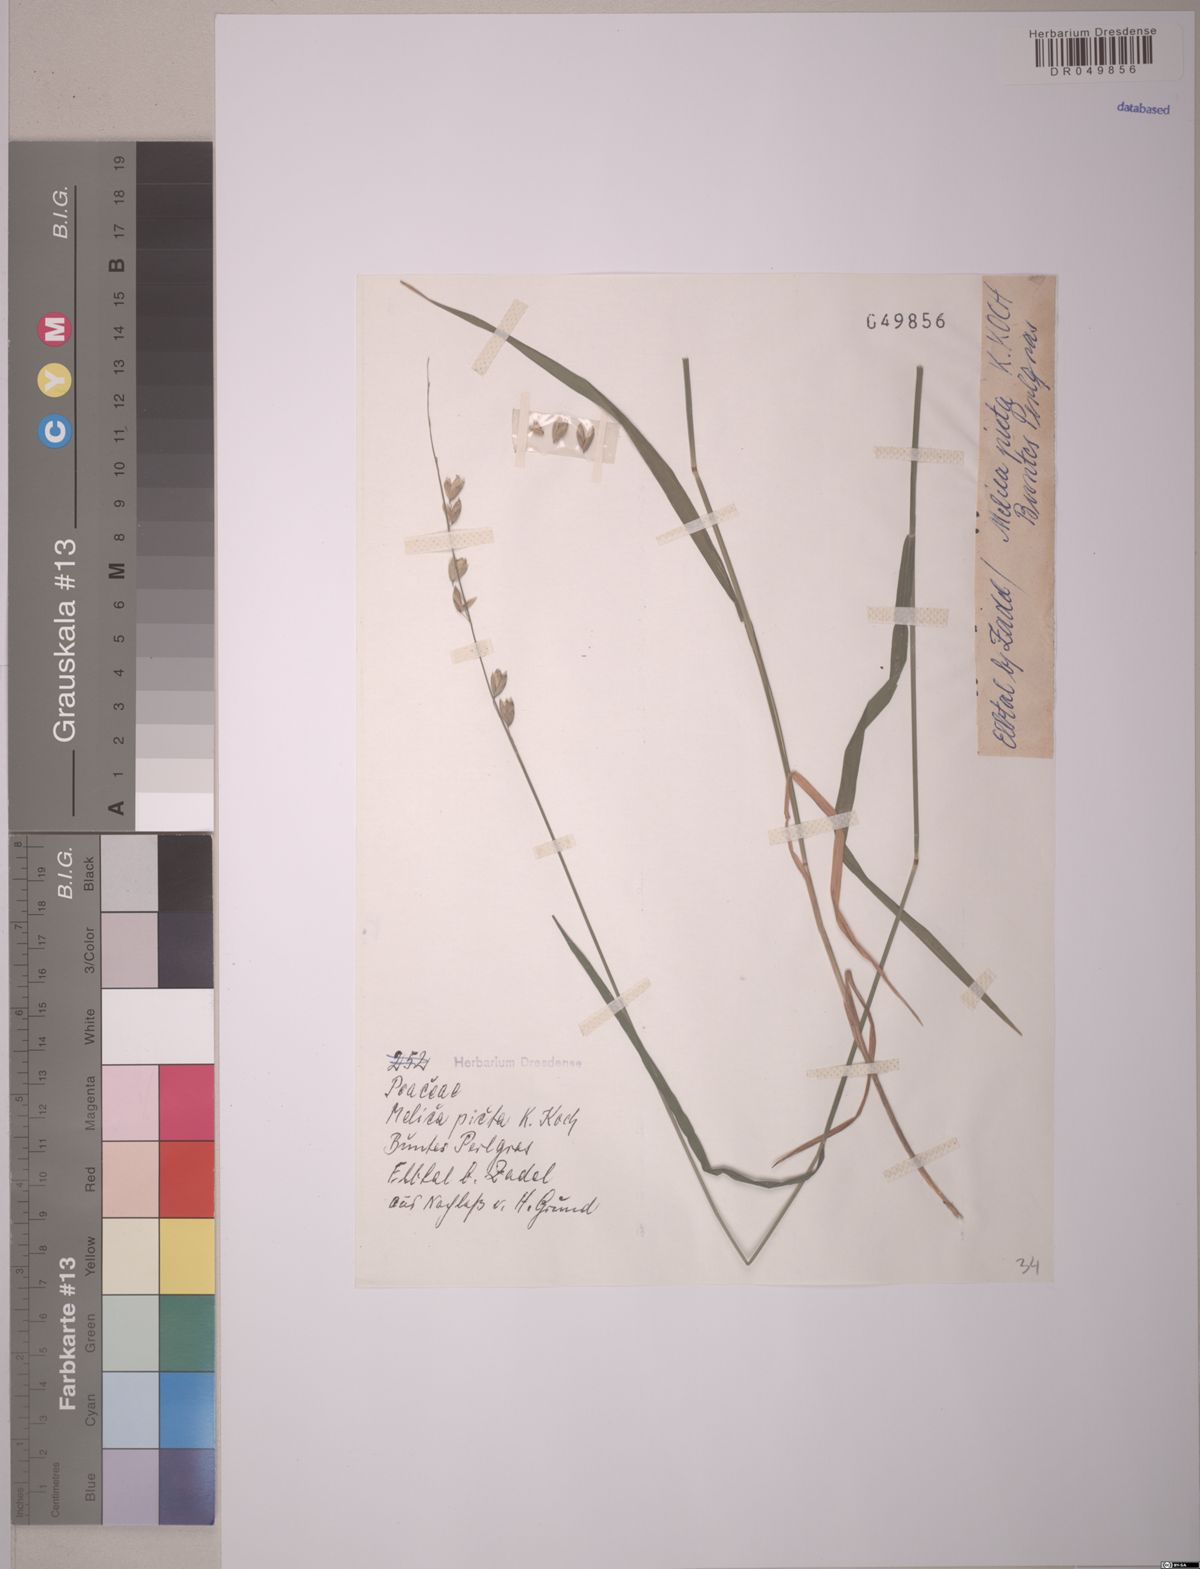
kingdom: Plantae
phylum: Tracheophyta
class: Liliopsida
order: Poales
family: Poaceae
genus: Melica
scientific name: Melica picta
